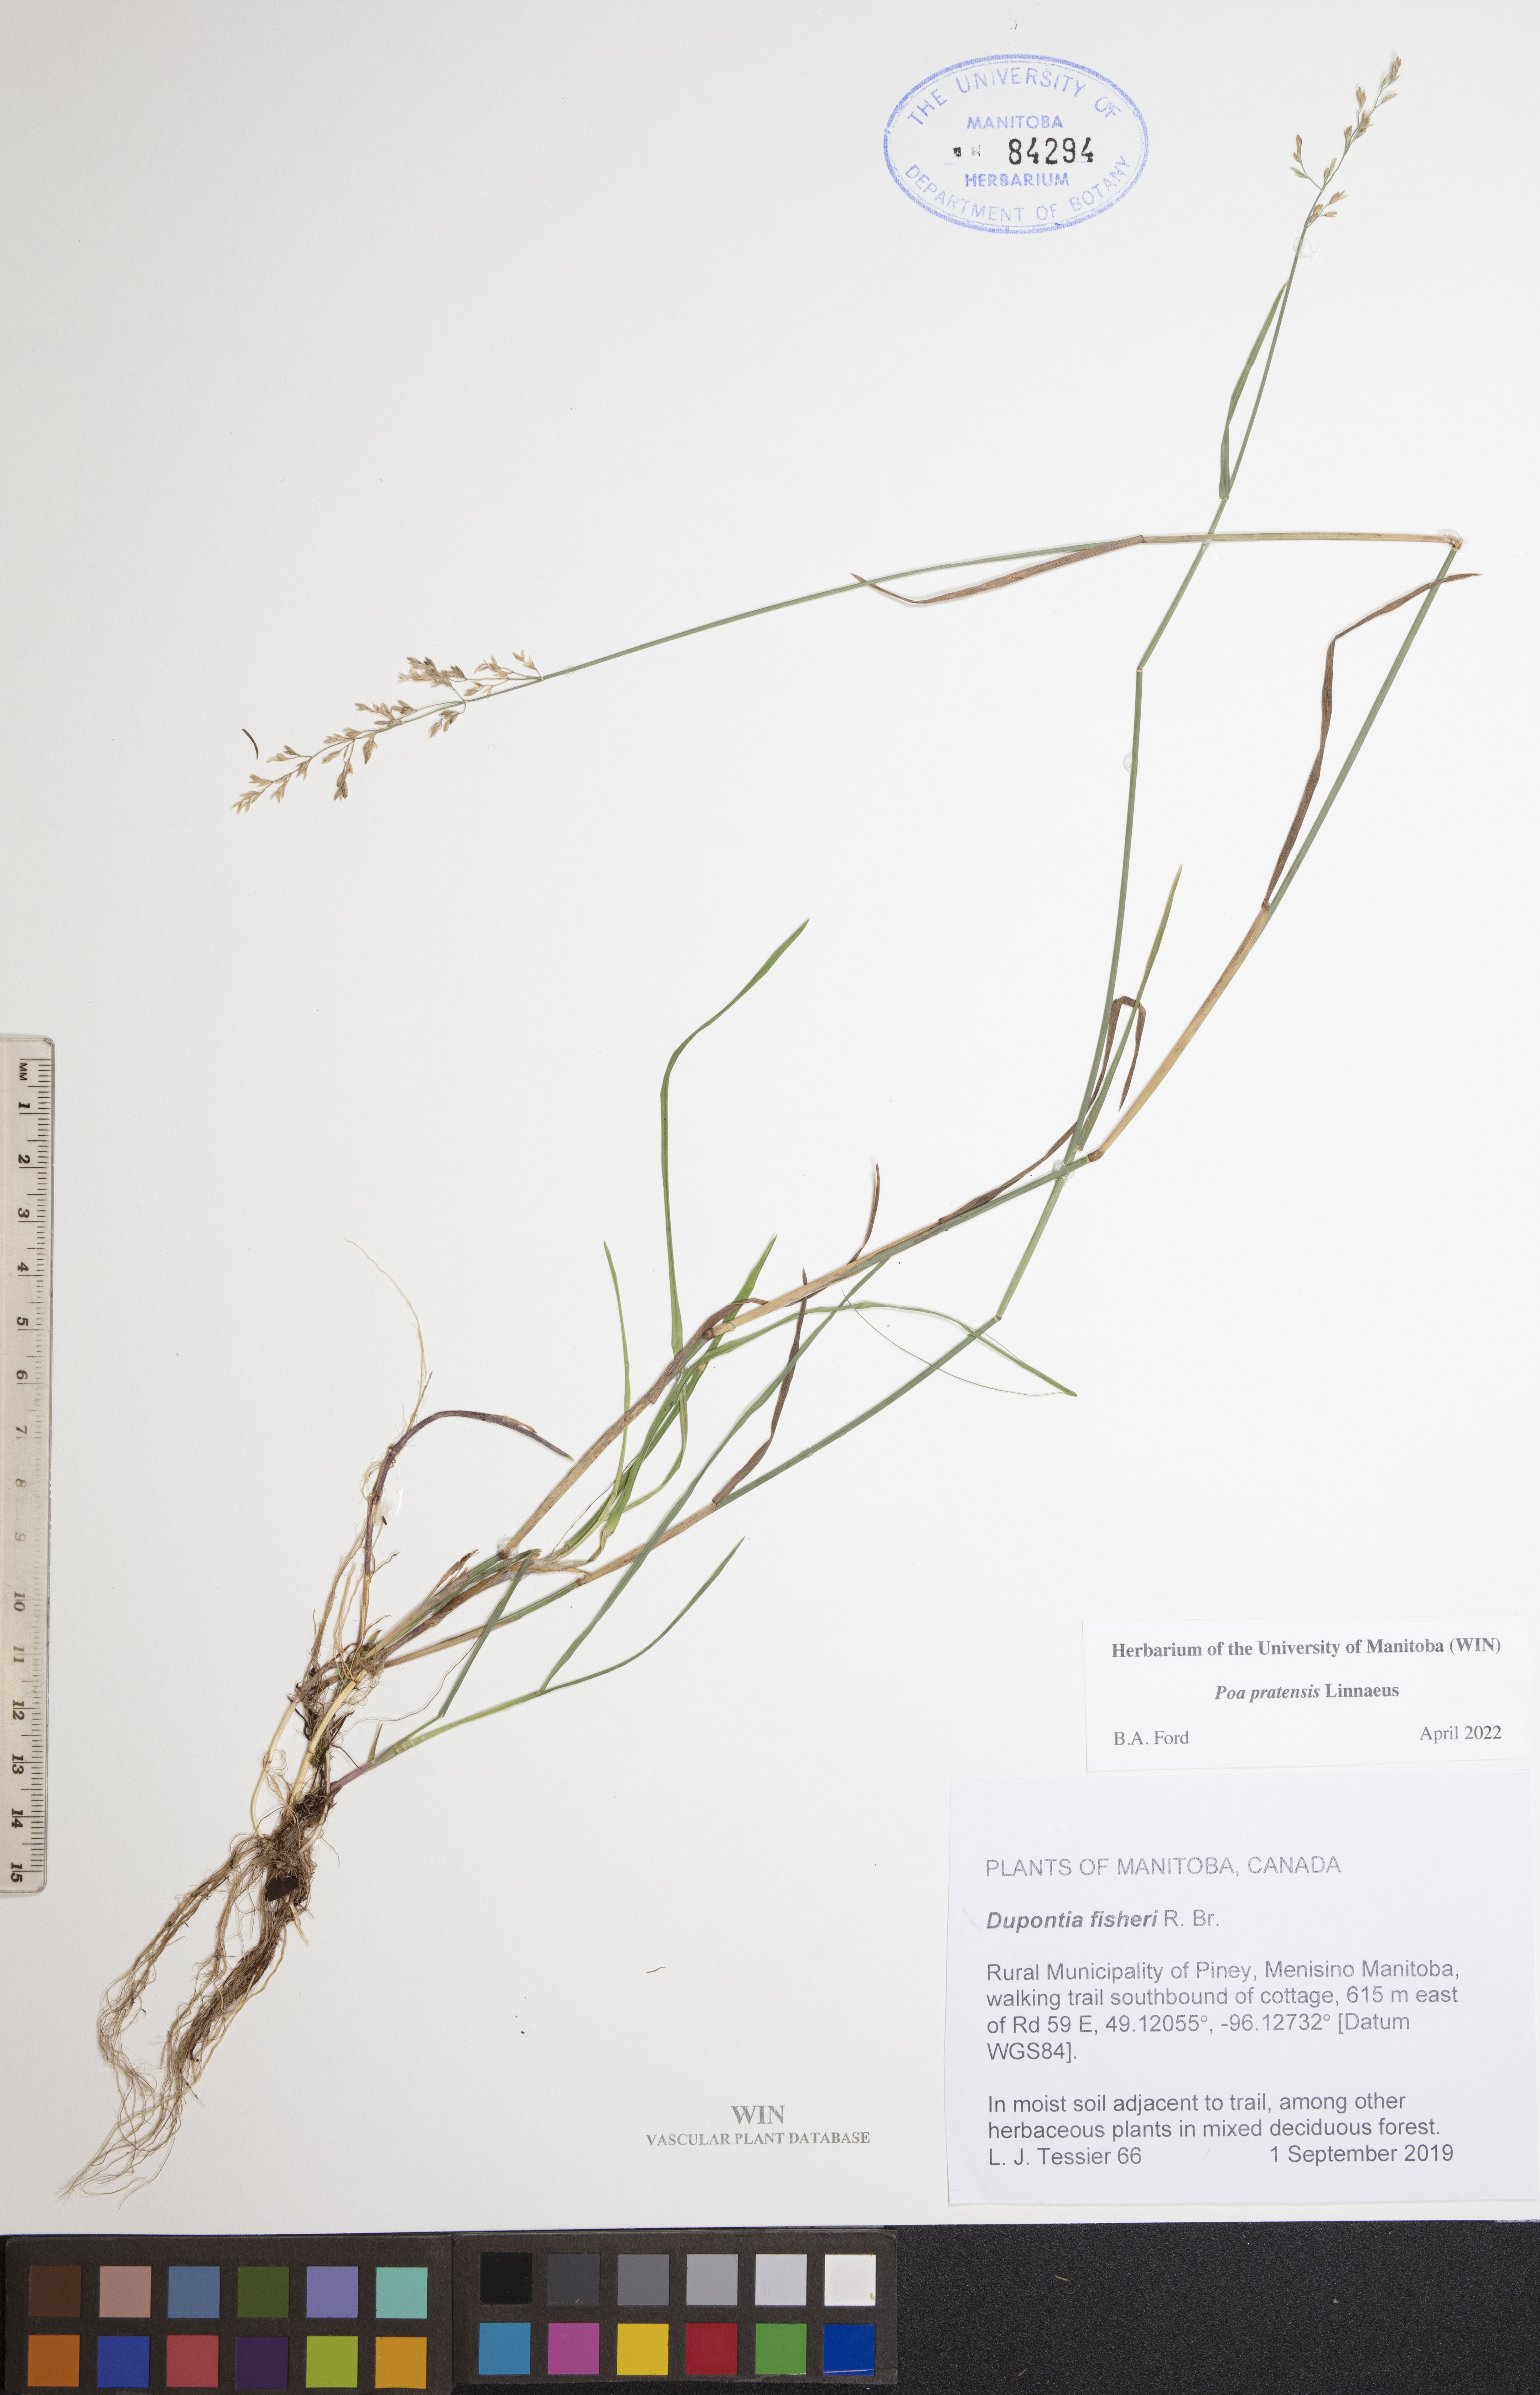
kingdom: Plantae
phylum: Tracheophyta
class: Liliopsida
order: Poales
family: Poaceae
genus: Poa
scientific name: Poa pratensis
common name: Kentucky bluegrass
